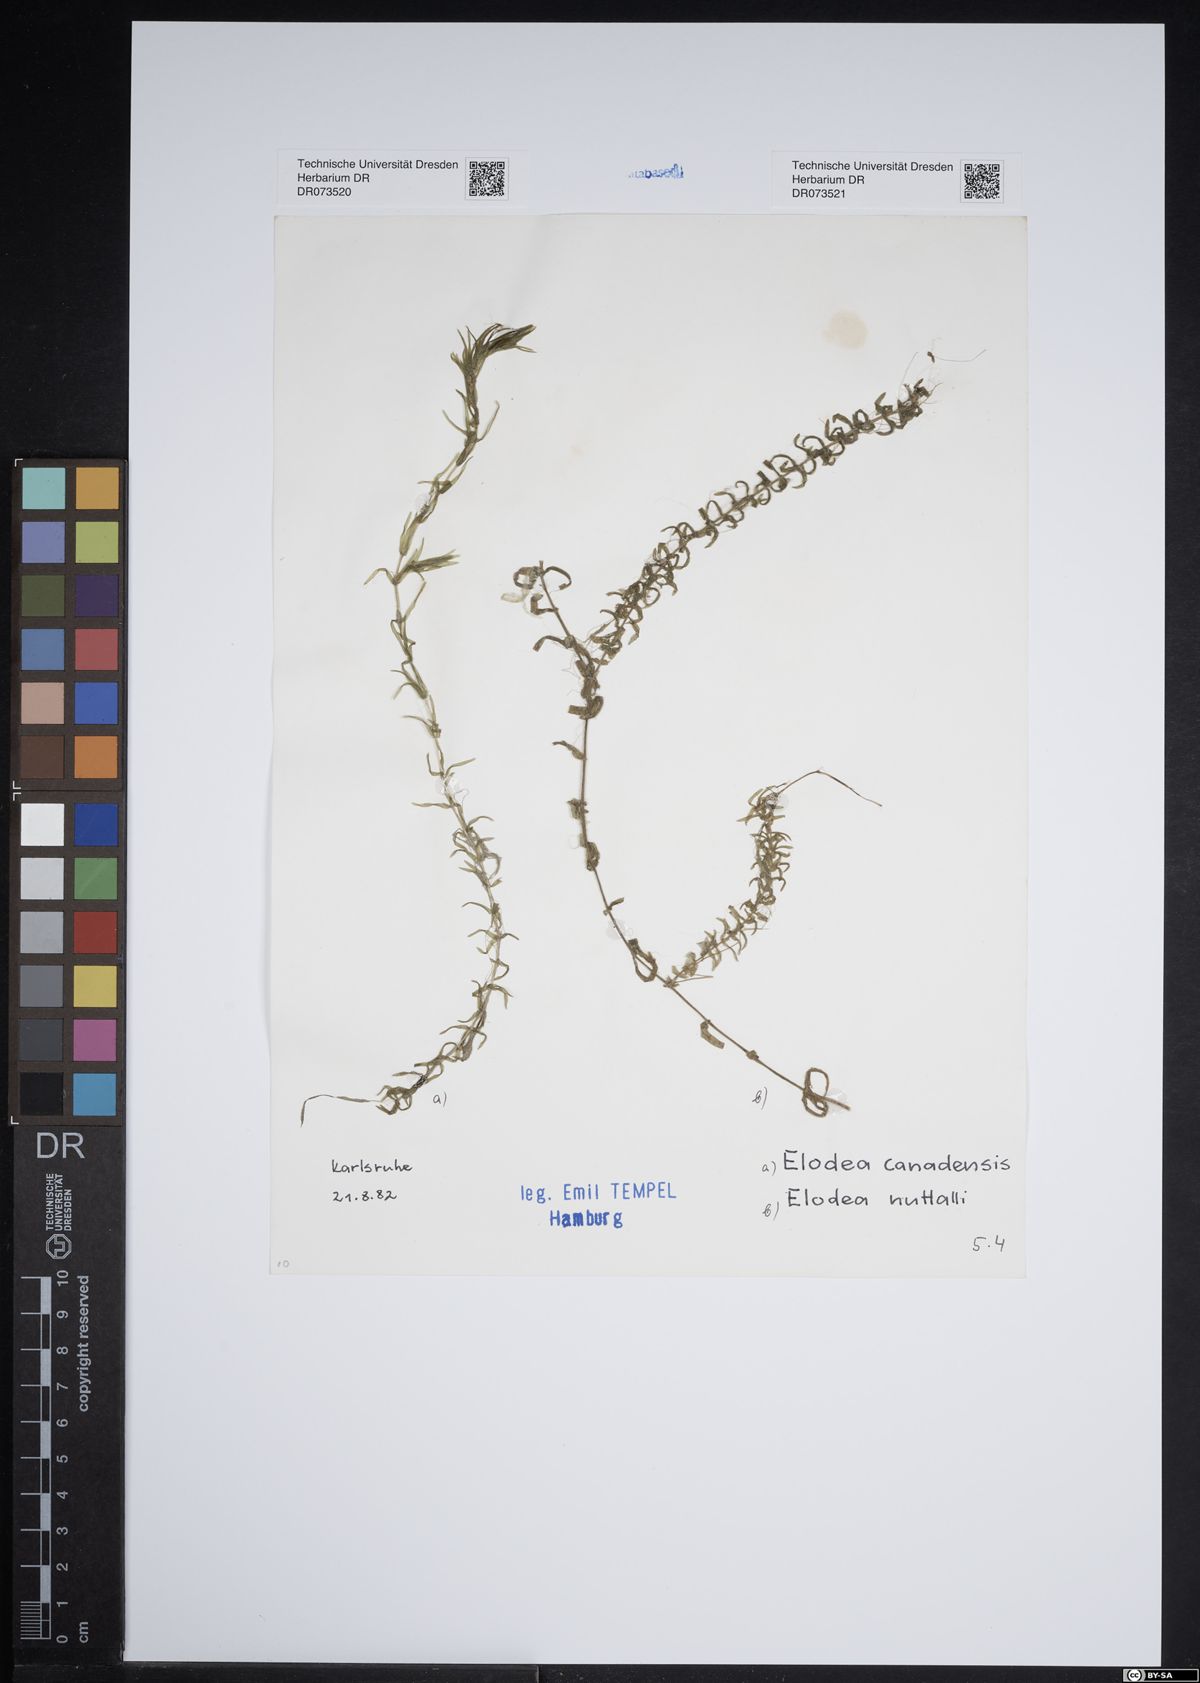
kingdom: Plantae
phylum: Tracheophyta
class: Liliopsida
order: Alismatales
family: Hydrocharitaceae
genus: Elodea
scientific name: Elodea canadensis
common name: Canadian waterweed
